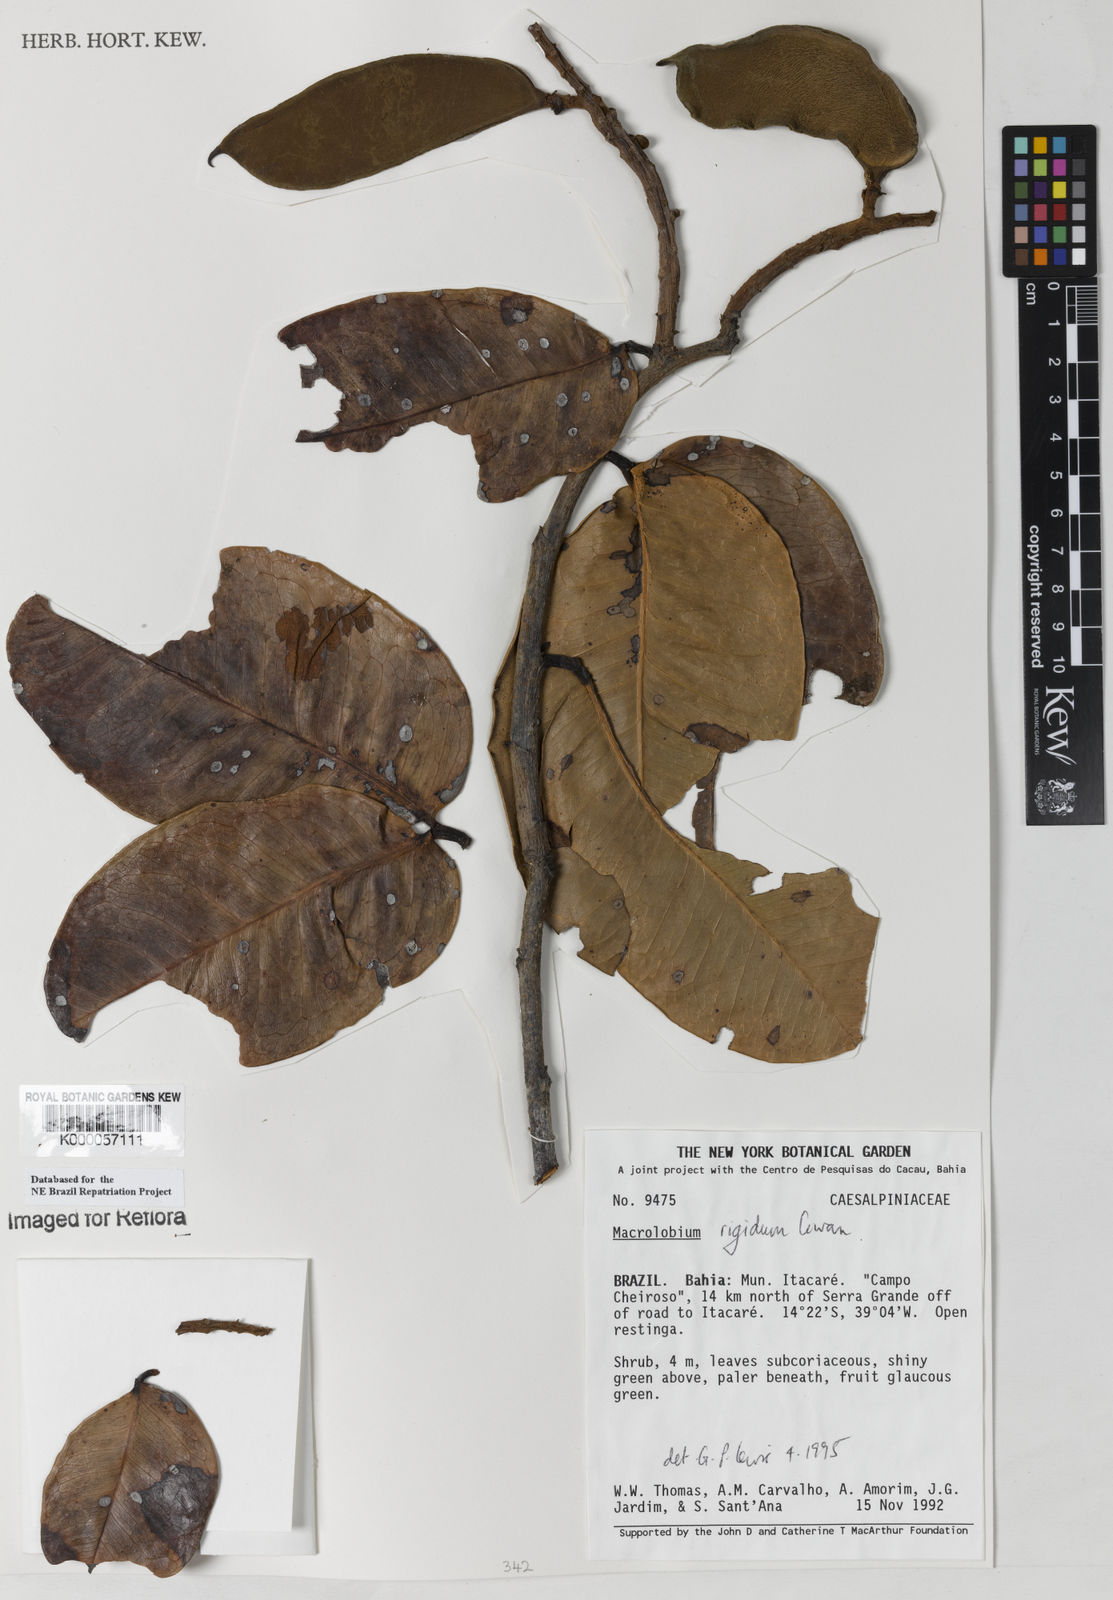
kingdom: Plantae
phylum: Tracheophyta
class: Magnoliopsida
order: Fabales
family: Fabaceae
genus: Macrolobium
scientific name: Macrolobium rigidum
